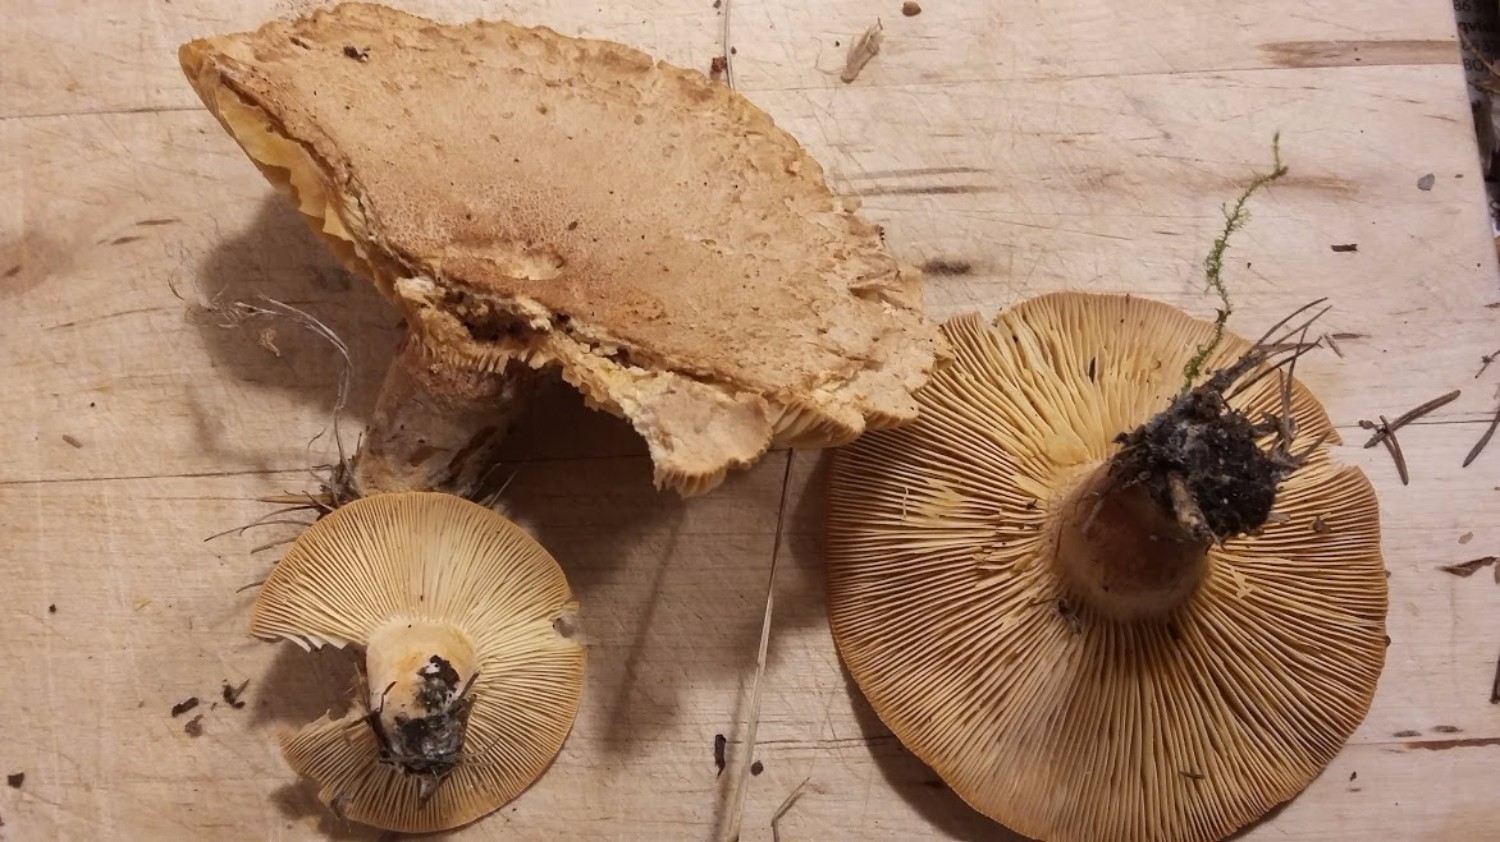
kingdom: Fungi
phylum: Basidiomycota
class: Agaricomycetes
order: Russulales
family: Russulaceae
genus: Lactarius
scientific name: Lactarius helvus
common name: mose-mælkehat
